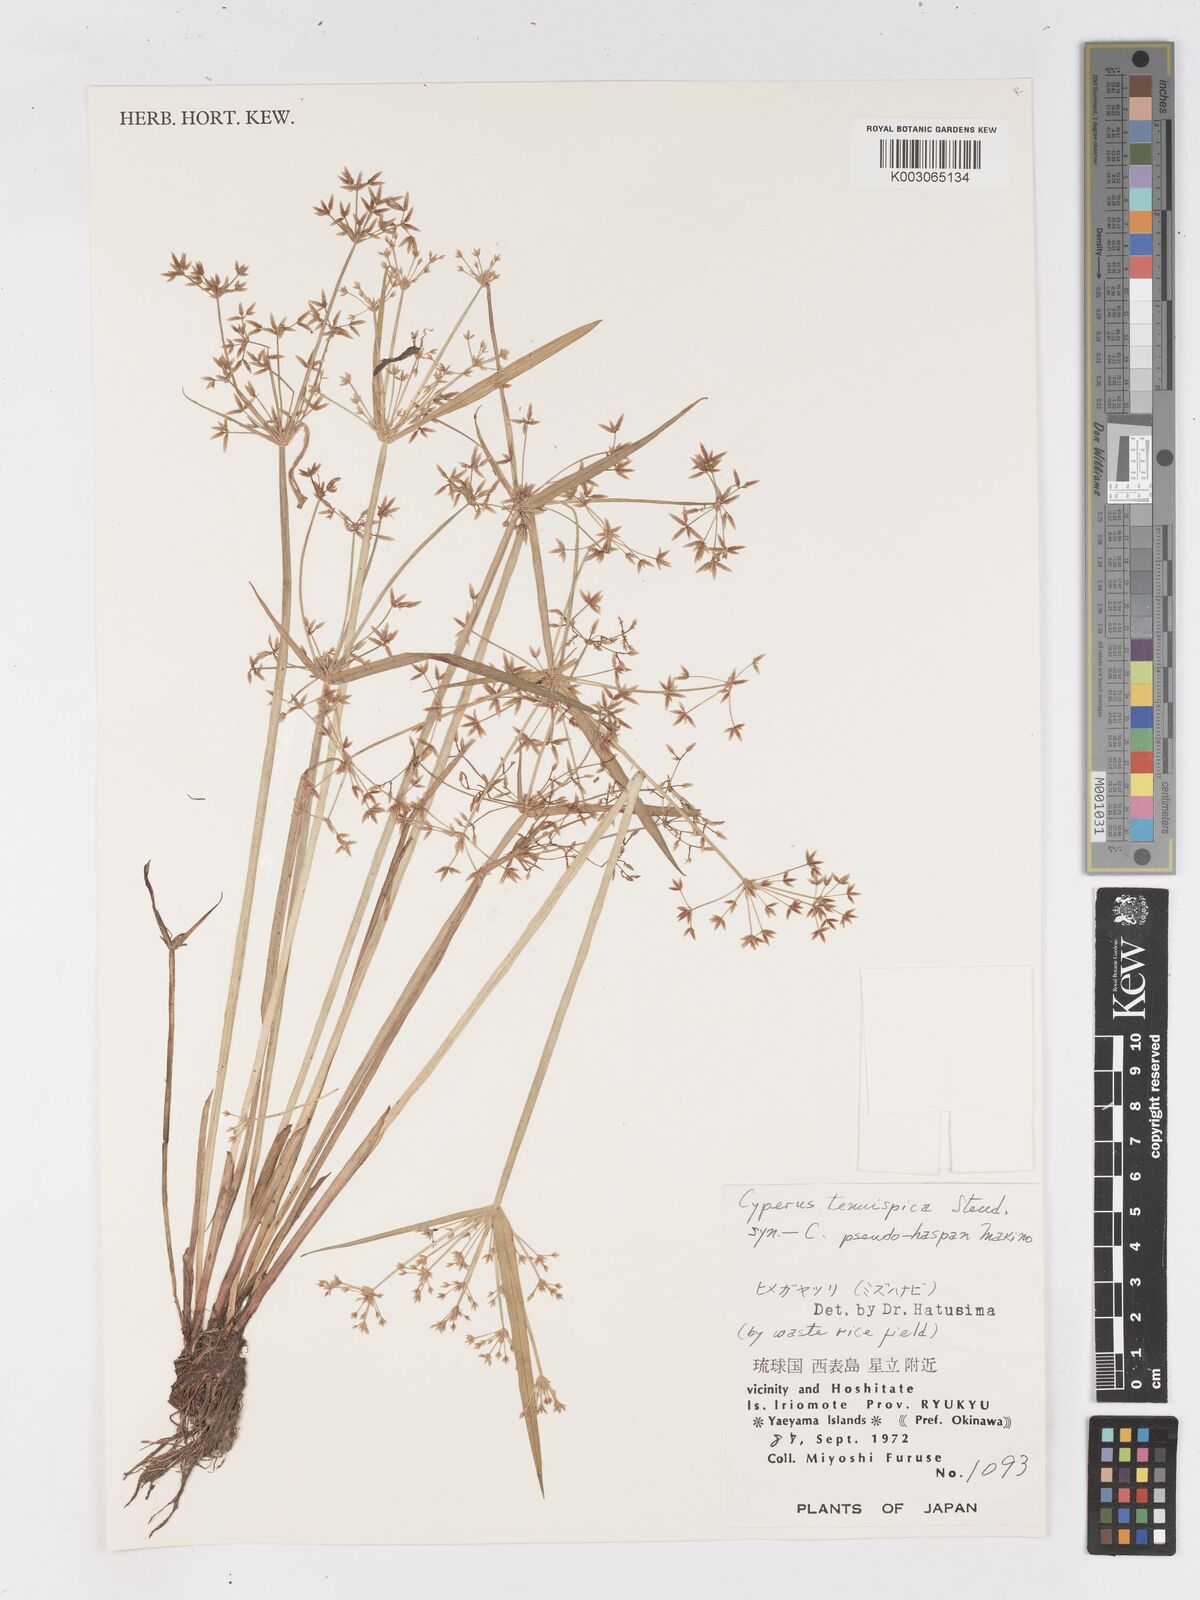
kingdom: Plantae
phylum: Tracheophyta
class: Liliopsida
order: Poales
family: Cyperaceae
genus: Cyperus
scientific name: Cyperus tenuispica
